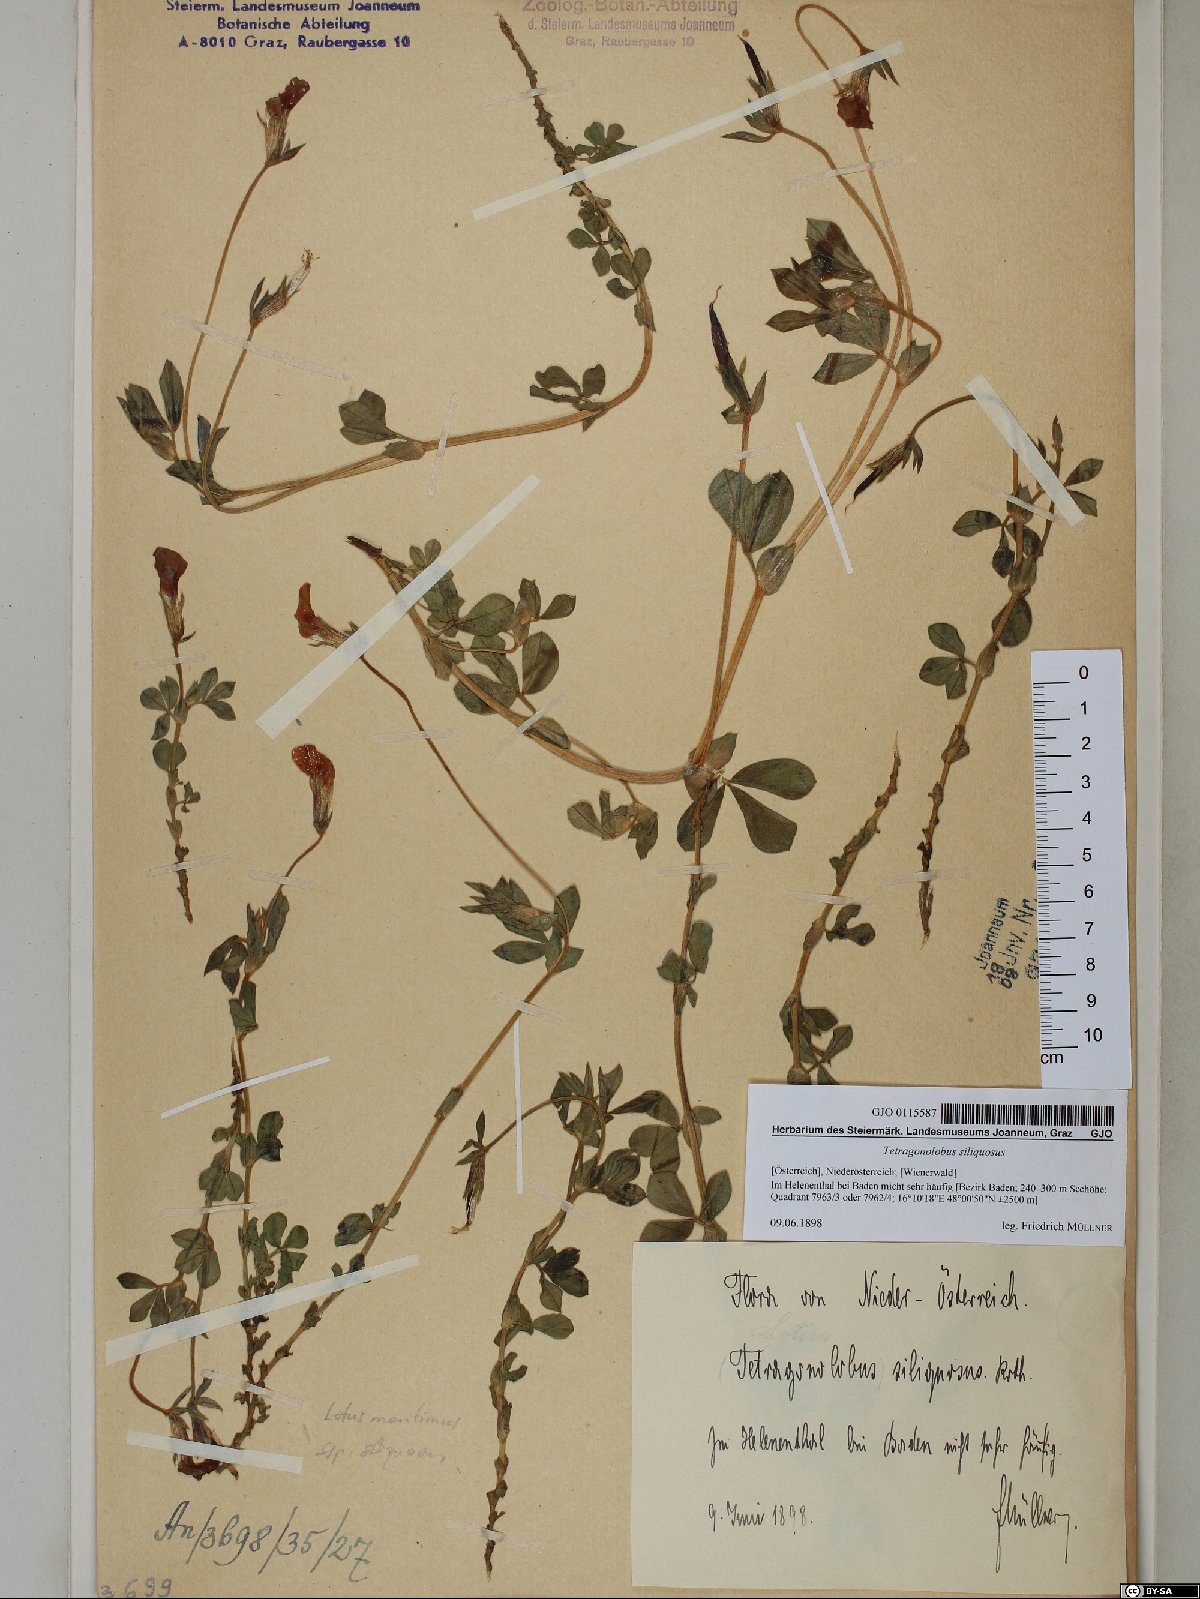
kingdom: Plantae
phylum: Tracheophyta
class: Magnoliopsida
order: Fabales
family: Fabaceae
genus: Lathyrus
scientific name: Lathyrus inconspicuus
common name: Inconspicuous pea
